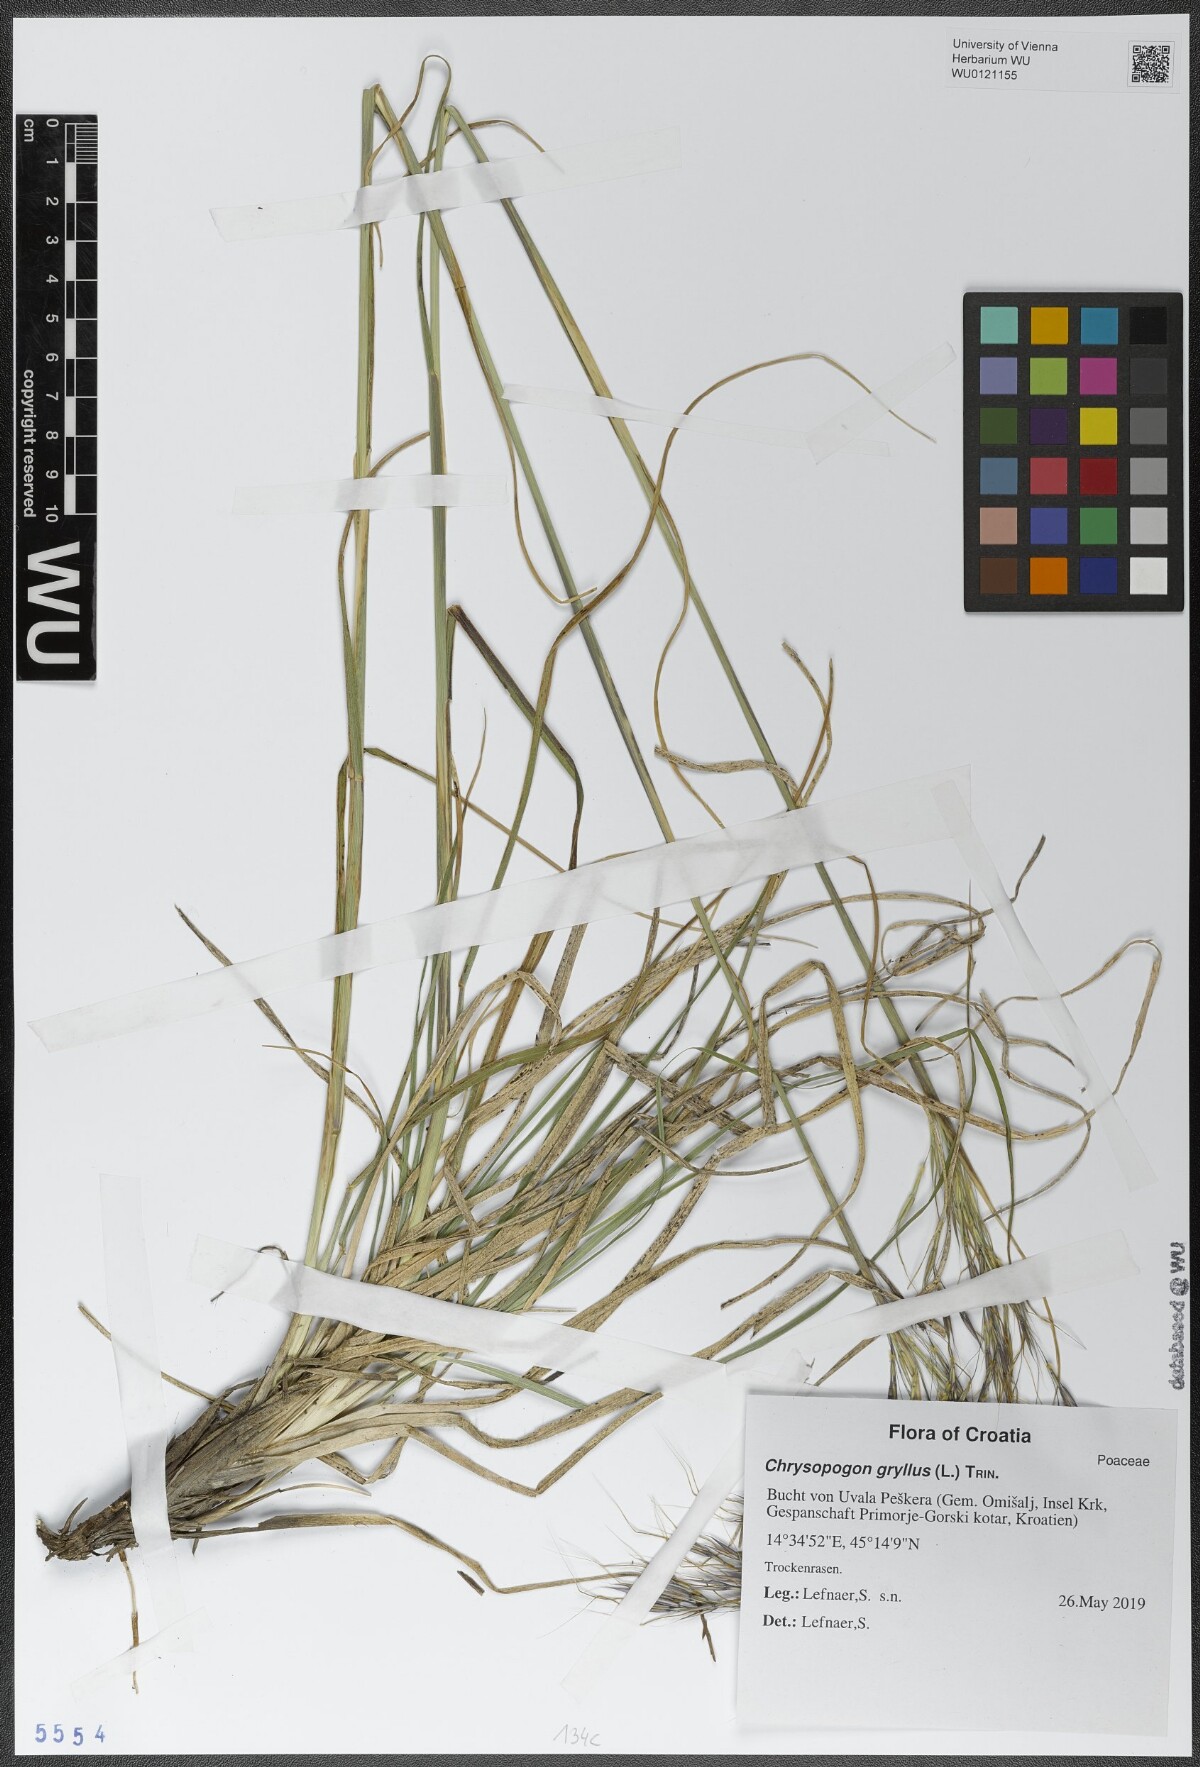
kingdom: Plantae
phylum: Tracheophyta
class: Liliopsida
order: Poales
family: Poaceae
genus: Chrysopogon
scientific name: Chrysopogon gryllus
